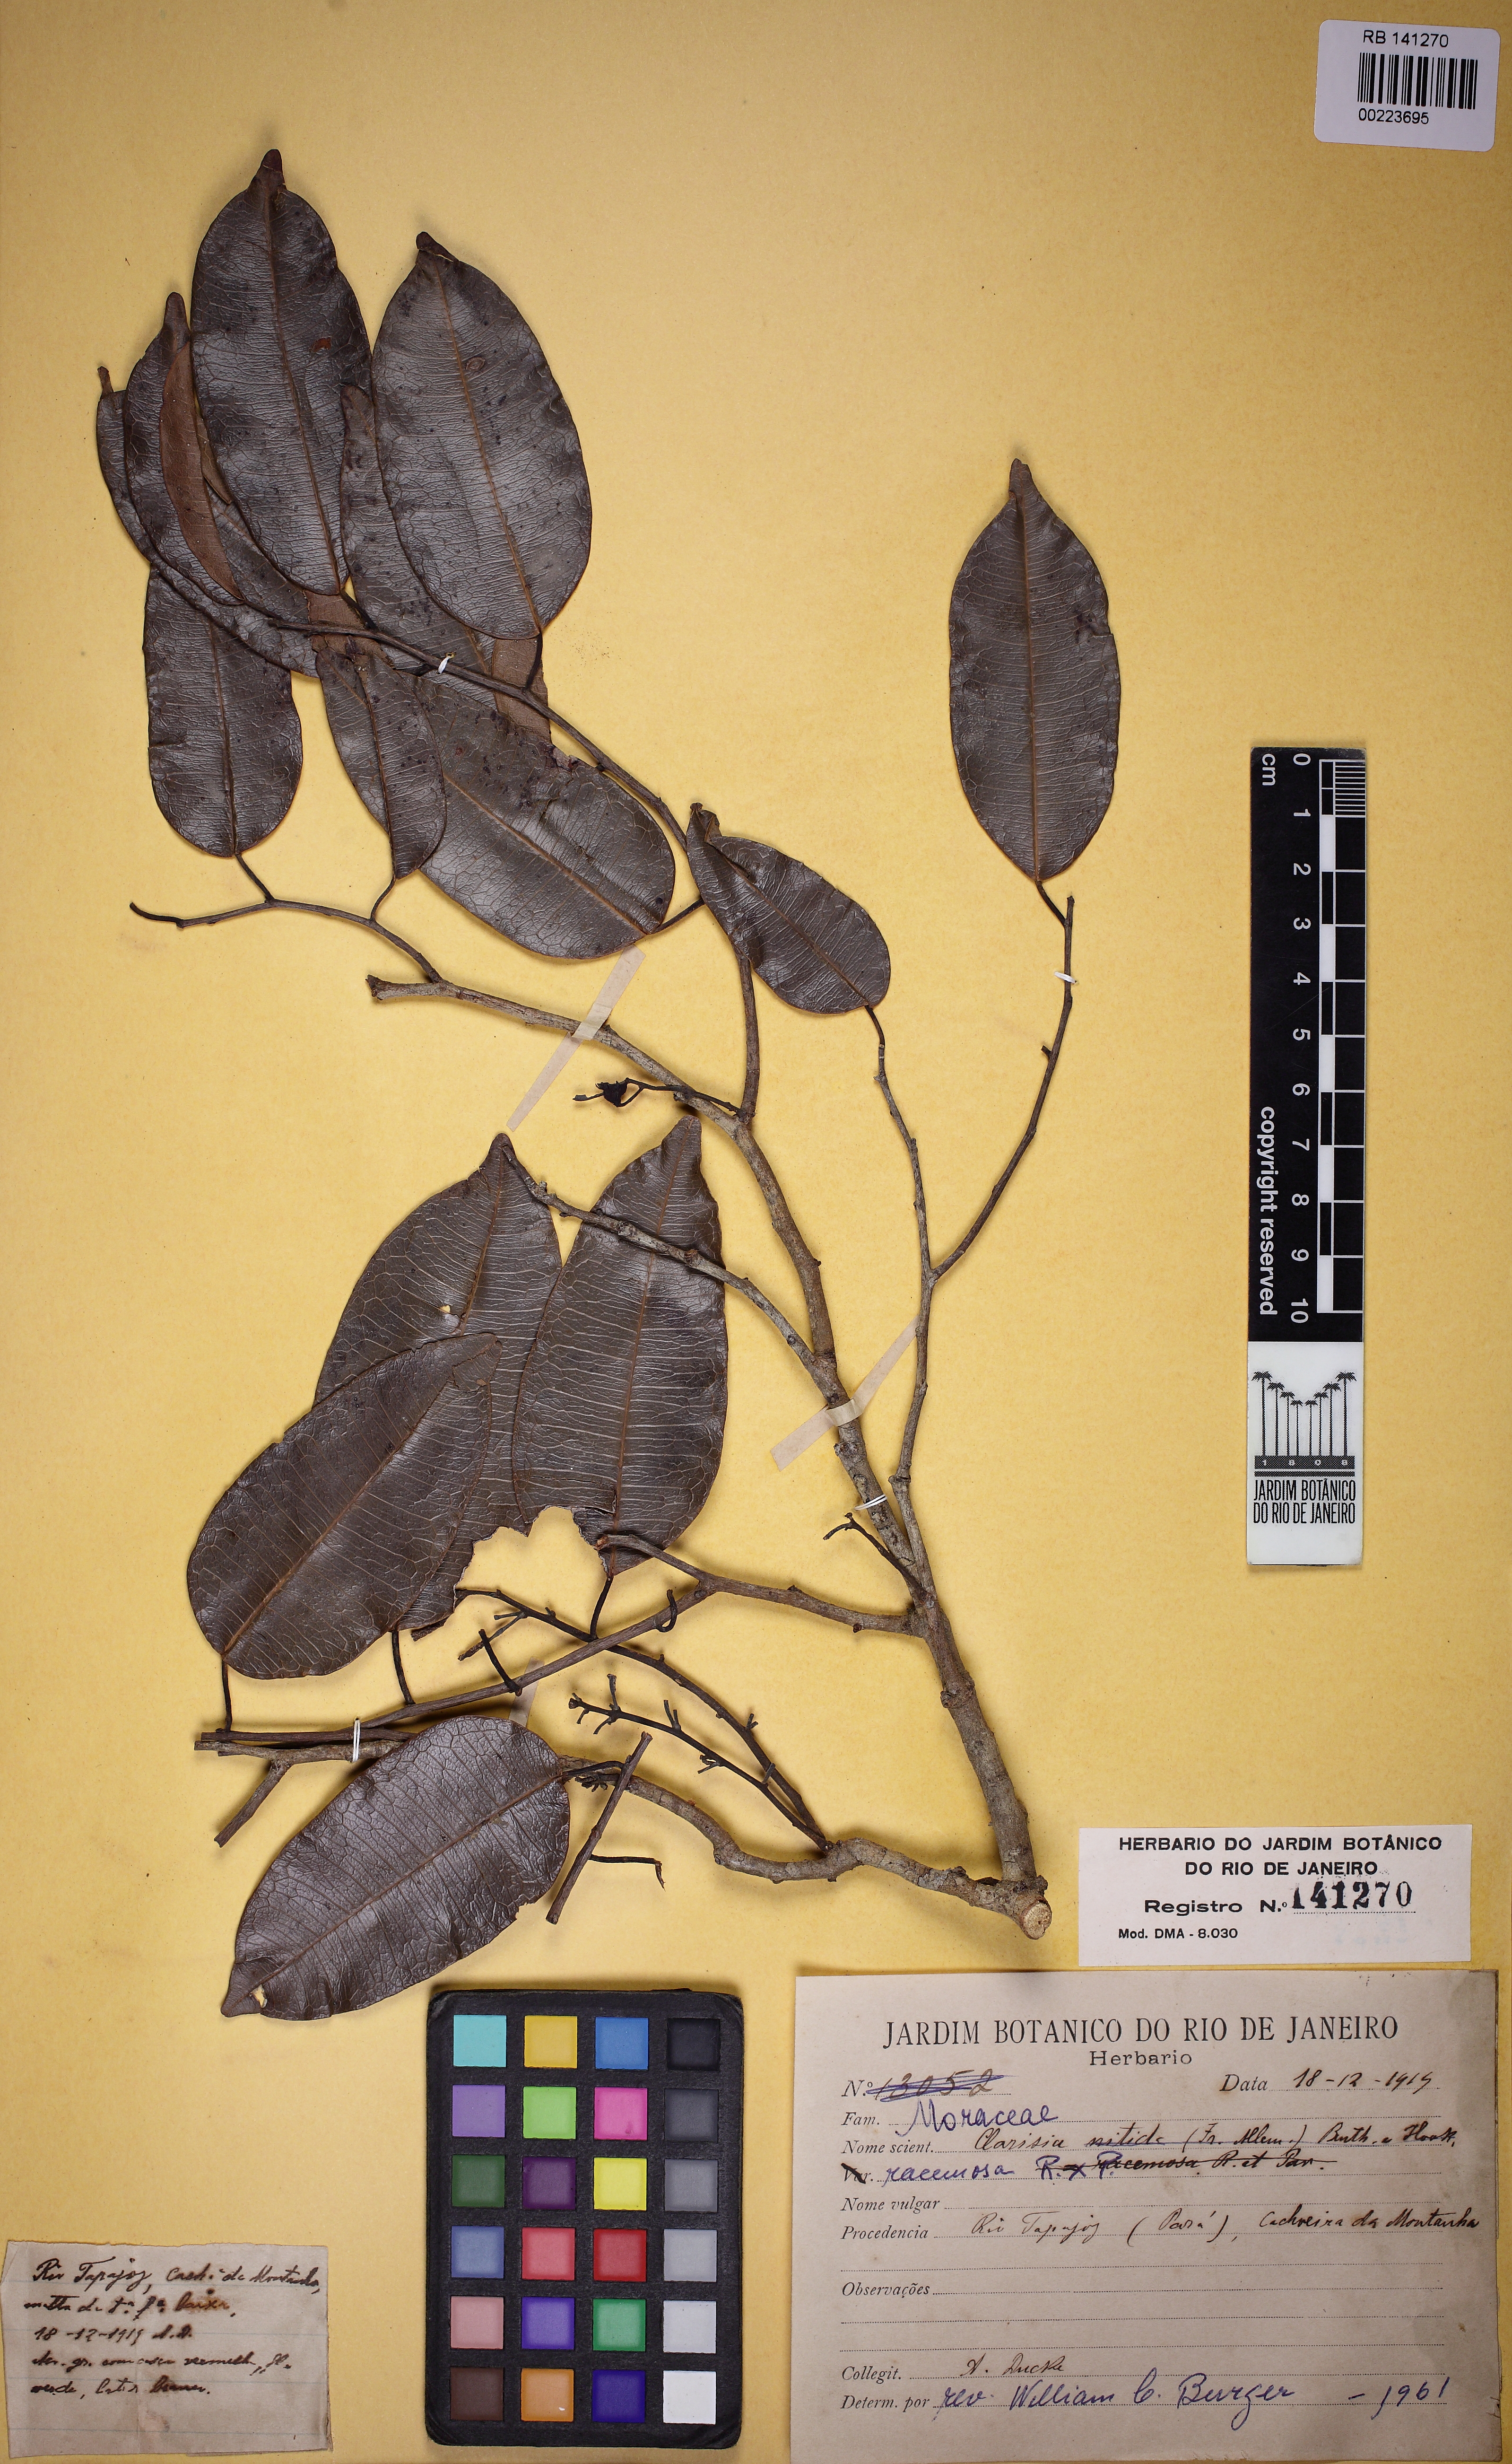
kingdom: Plantae
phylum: Tracheophyta
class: Magnoliopsida
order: Rosales
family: Moraceae
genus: Clarisia
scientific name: Clarisia racemosa
